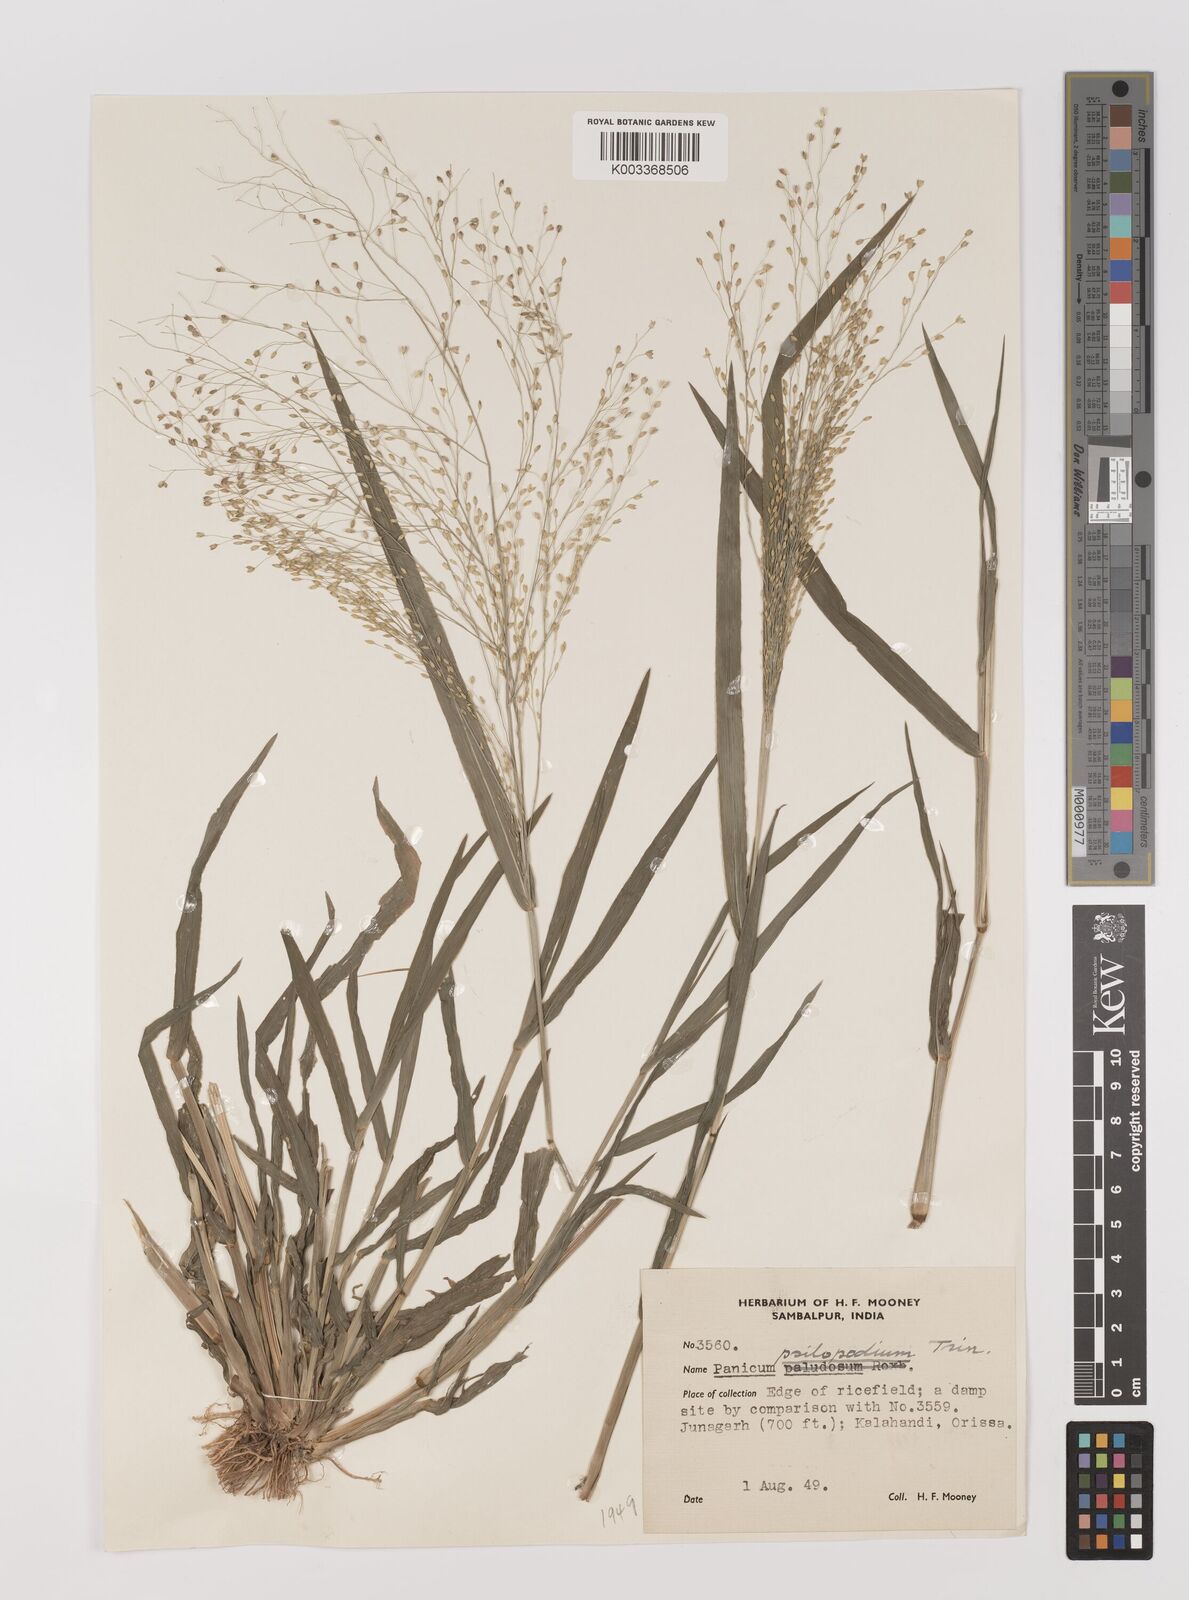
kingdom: Plantae
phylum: Tracheophyta
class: Liliopsida
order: Poales
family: Poaceae
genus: Panicum
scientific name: Panicum sumatrense
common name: Little millet
